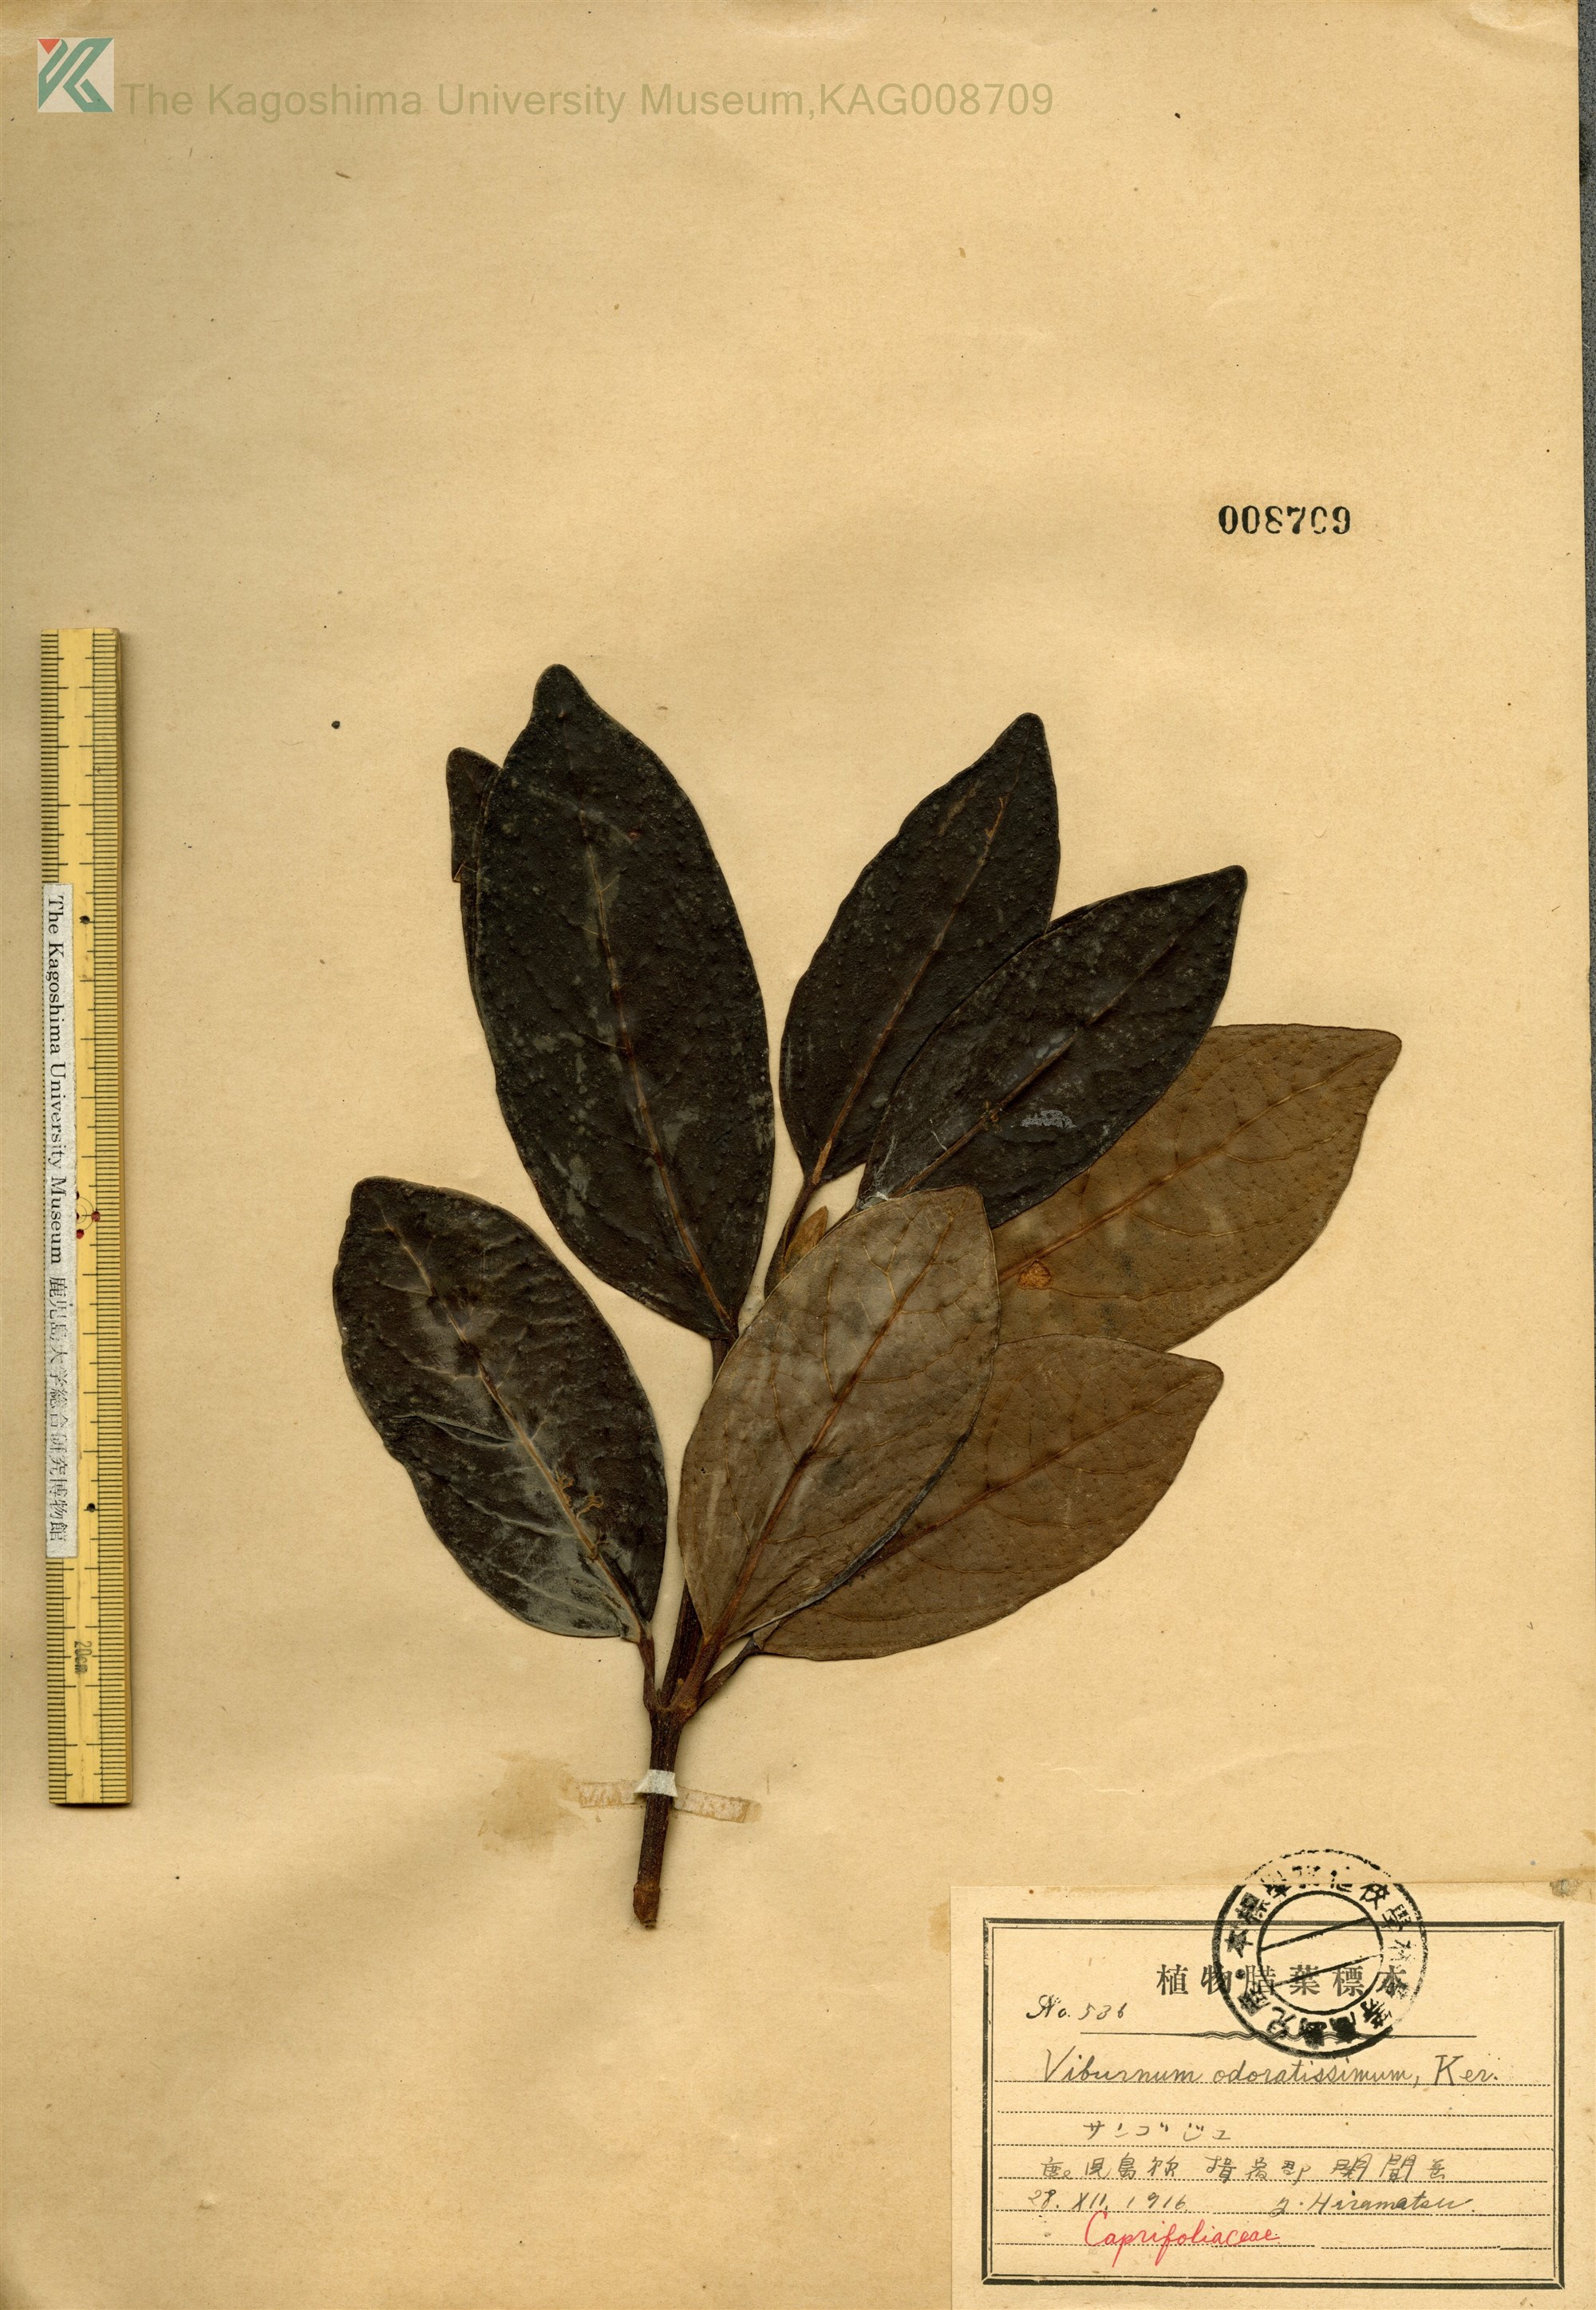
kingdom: Plantae
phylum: Tracheophyta
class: Magnoliopsida
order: Dipsacales
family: Viburnaceae
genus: Viburnum
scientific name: Viburnum odoratissimum
